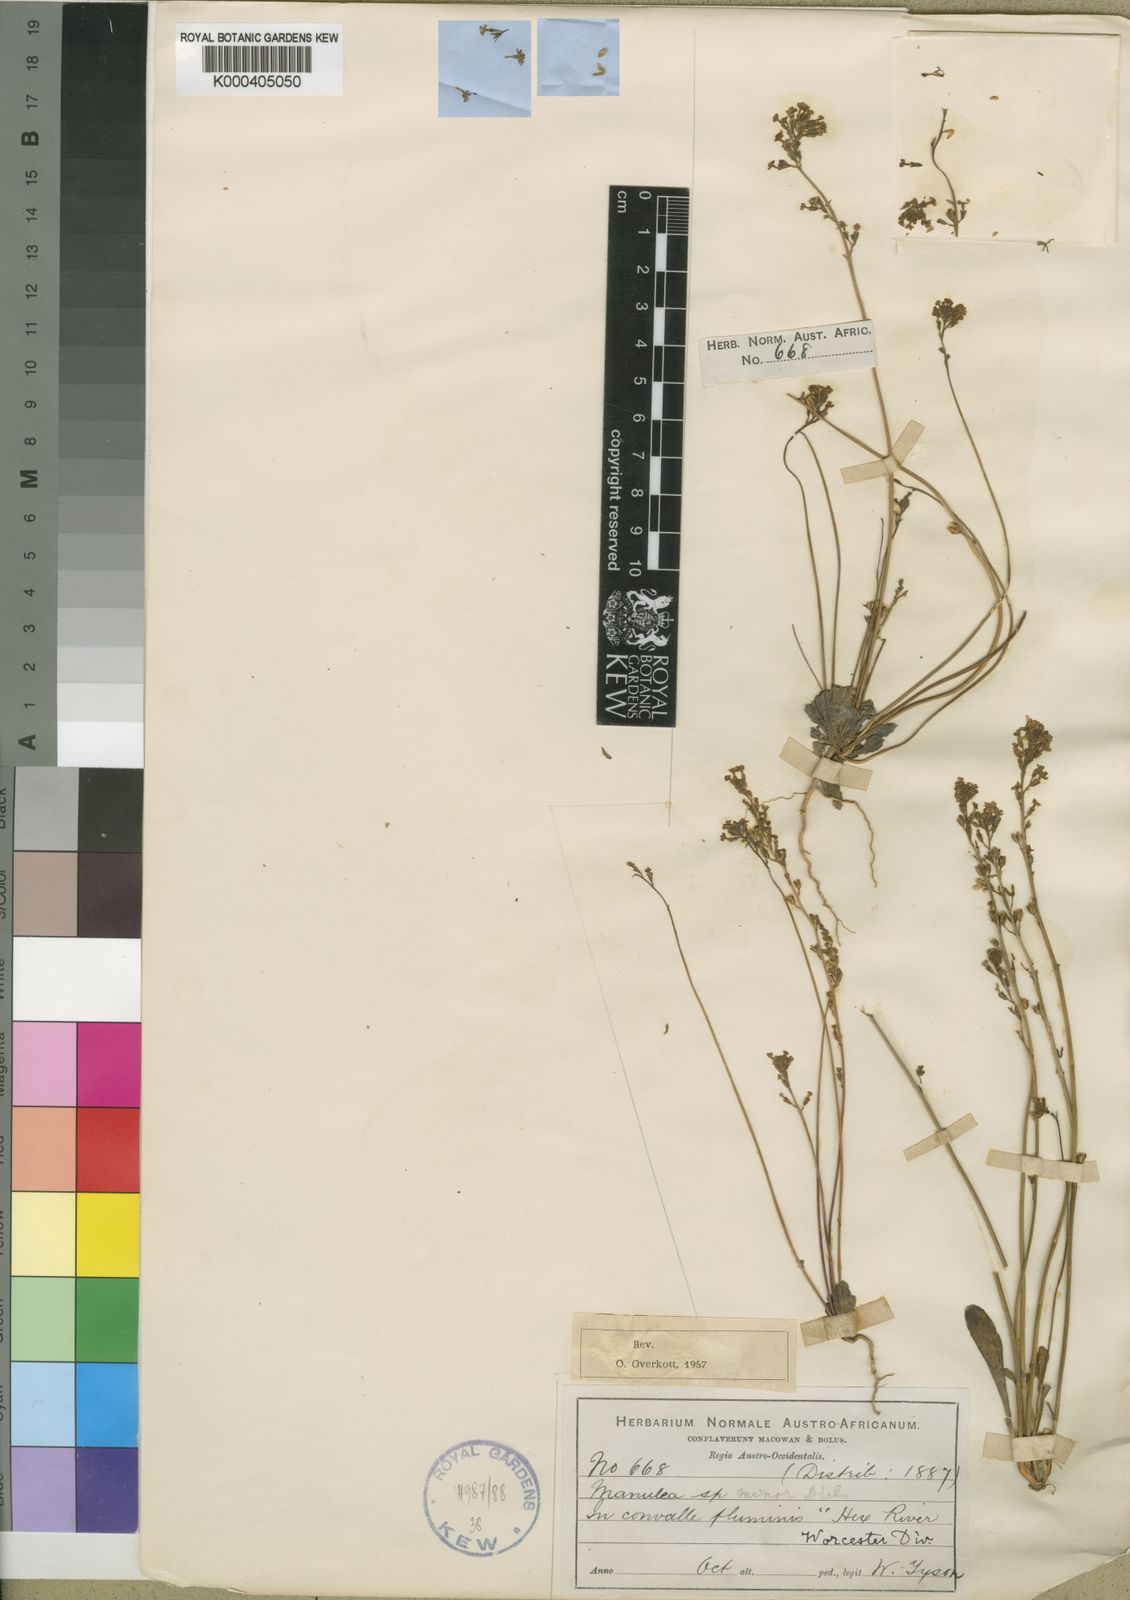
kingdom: Plantae
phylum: Tracheophyta
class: Magnoliopsida
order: Lamiales
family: Scrophulariaceae
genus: Manulea
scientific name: Manulea minor
